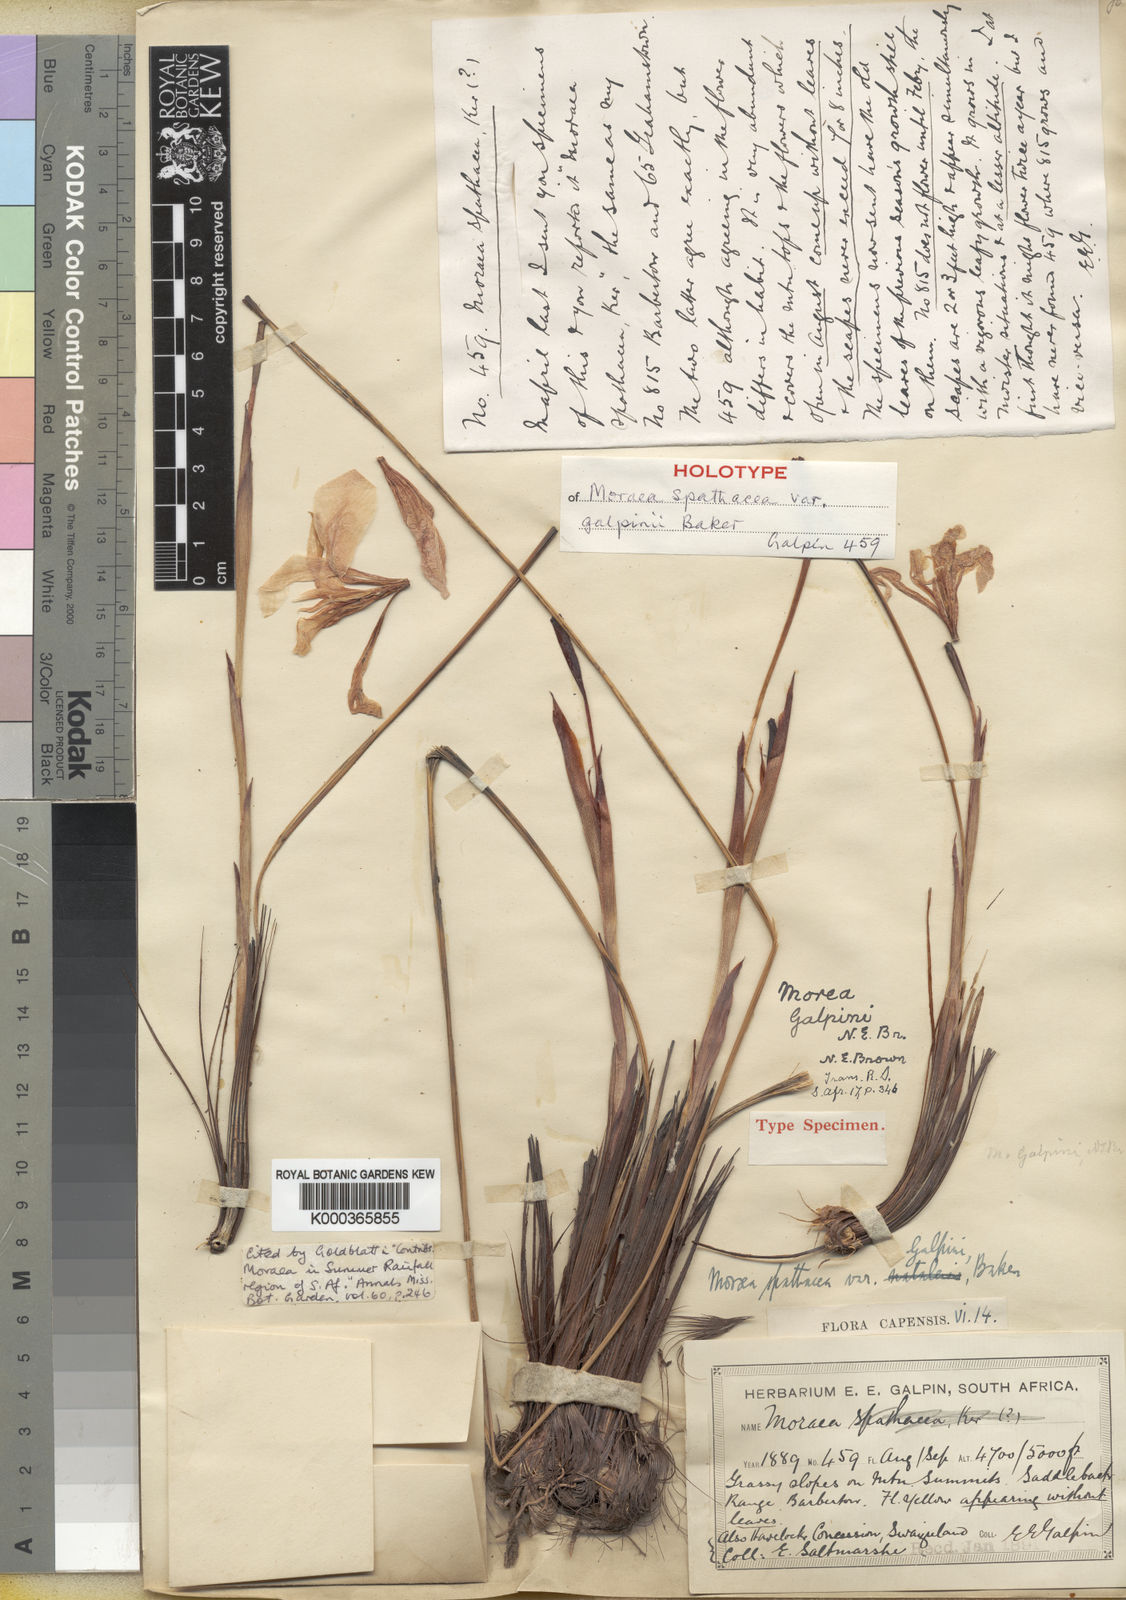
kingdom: Plantae
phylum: Tracheophyta
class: Liliopsida
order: Asparagales
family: Iridaceae
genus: Moraea
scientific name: Moraea galpinii
